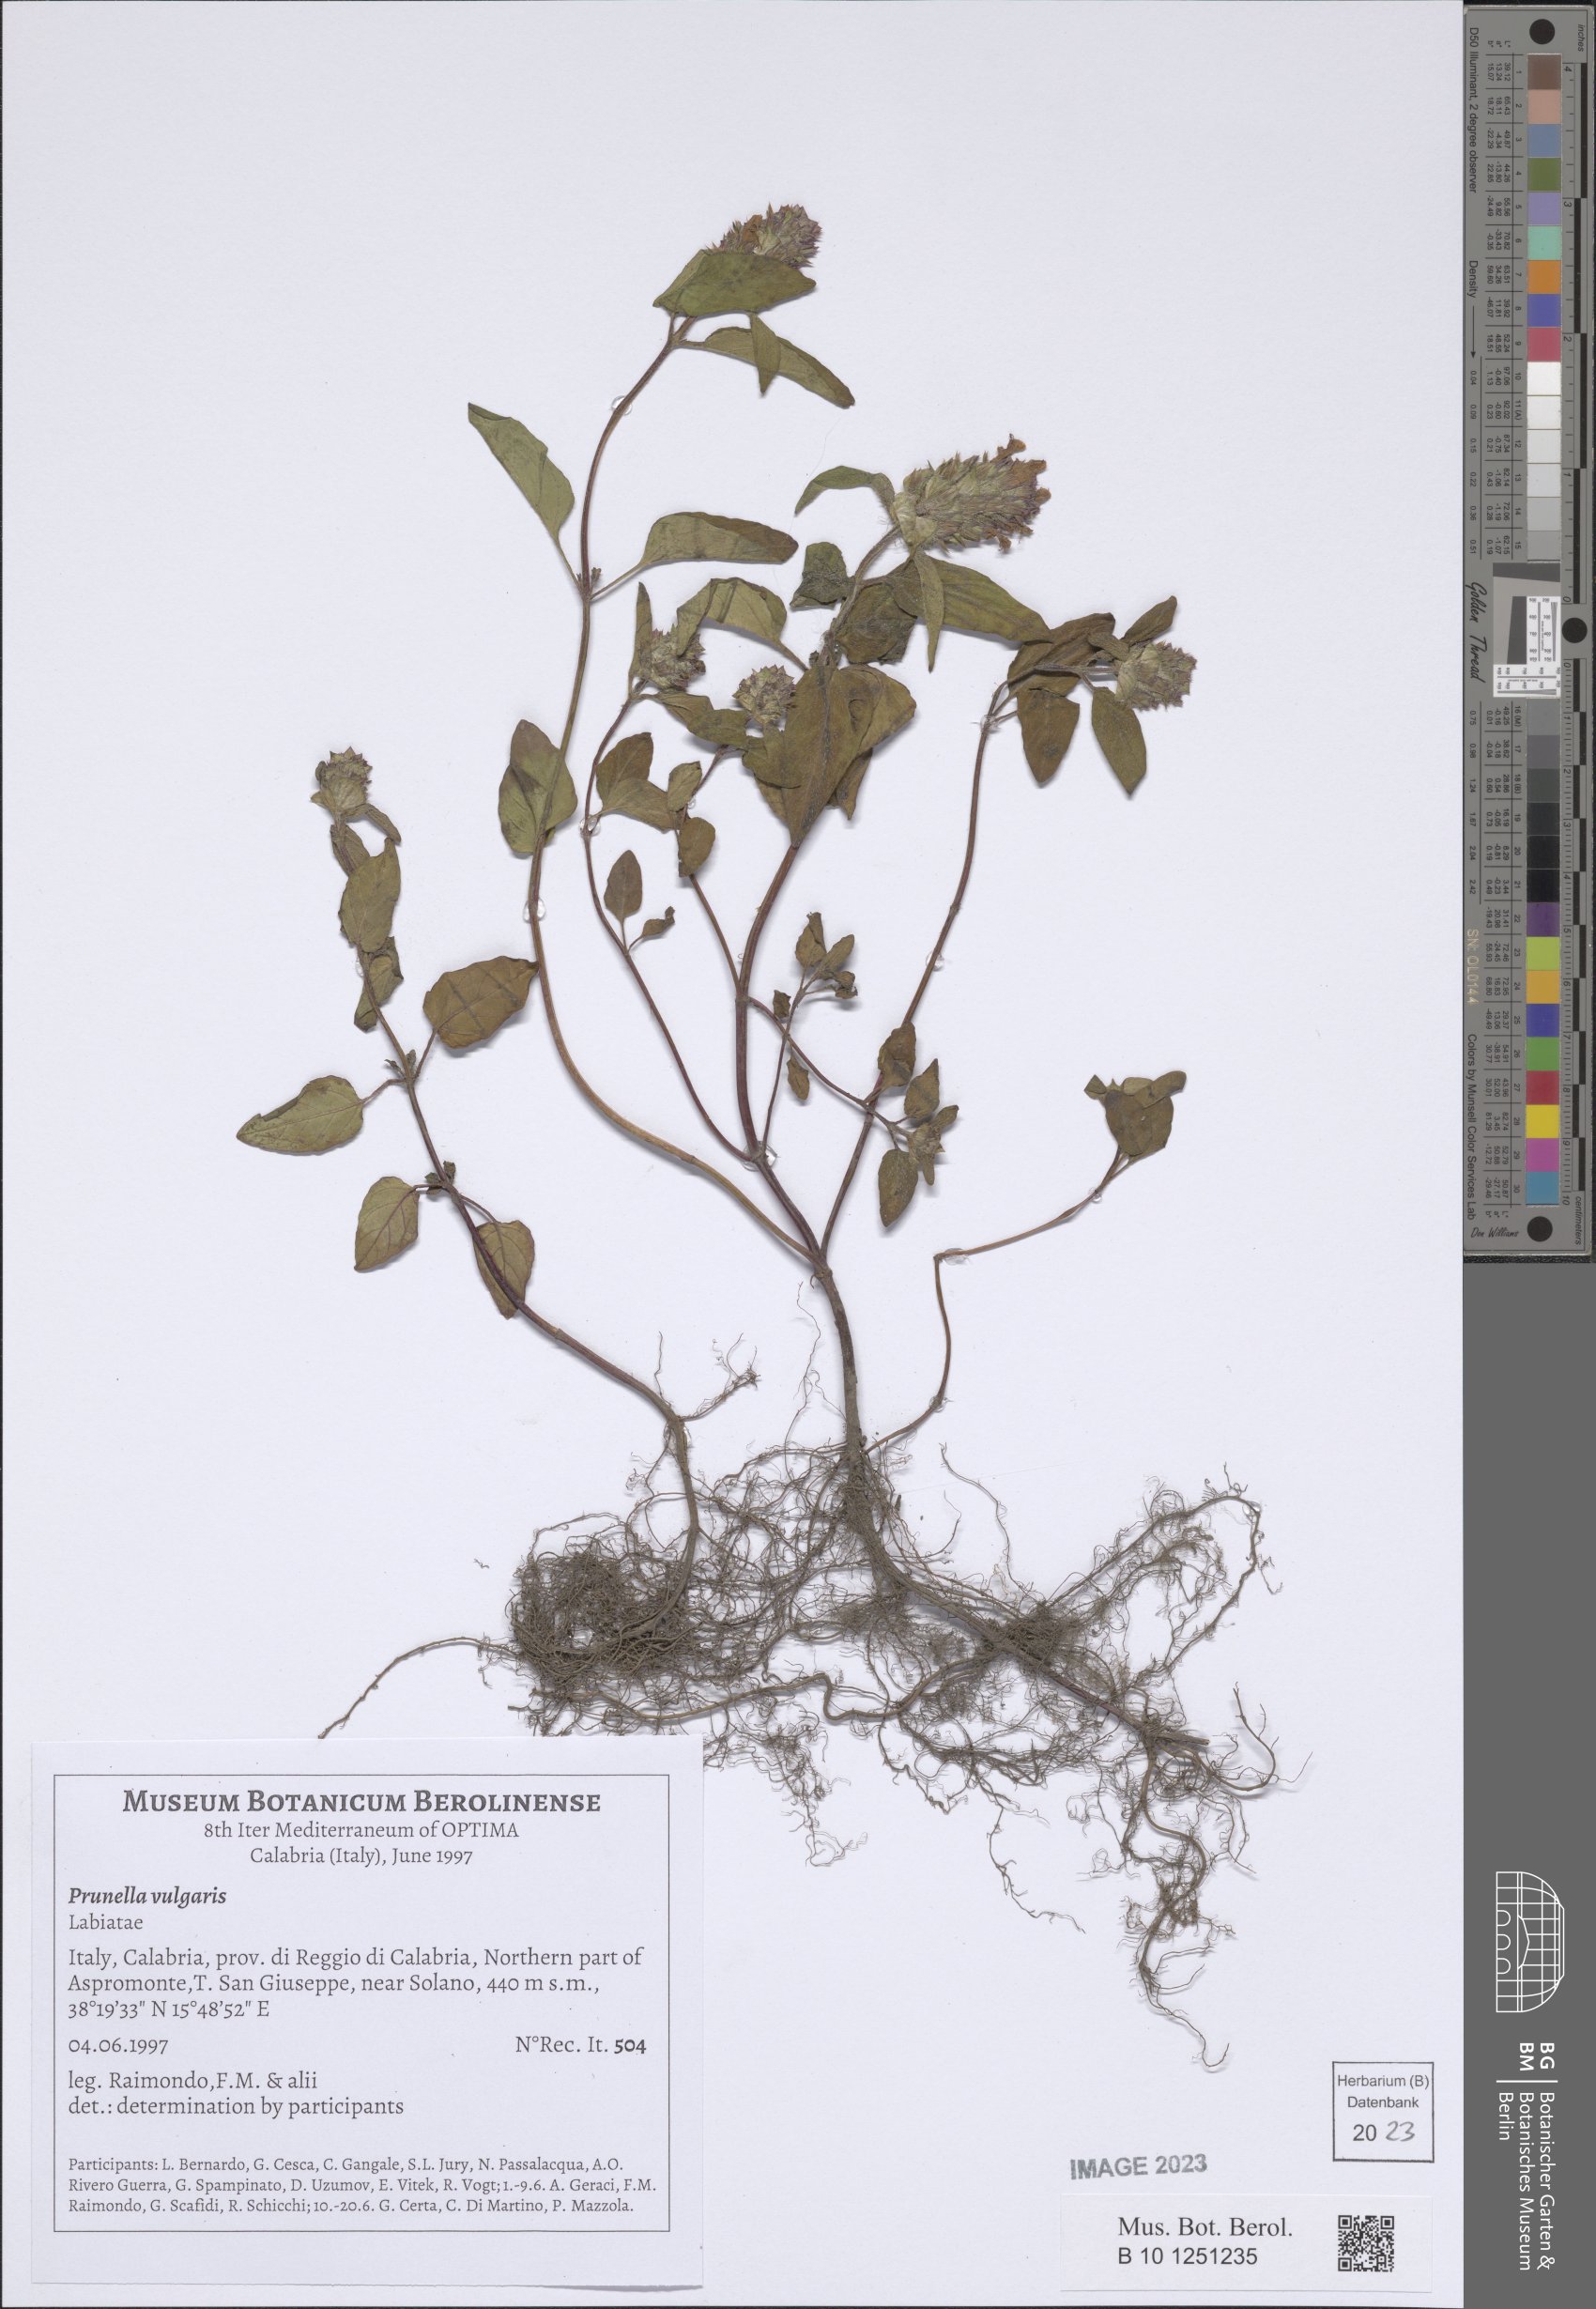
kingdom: Plantae
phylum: Tracheophyta
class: Magnoliopsida
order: Lamiales
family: Lamiaceae
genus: Prunella
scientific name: Prunella vulgaris
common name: Heal-all
